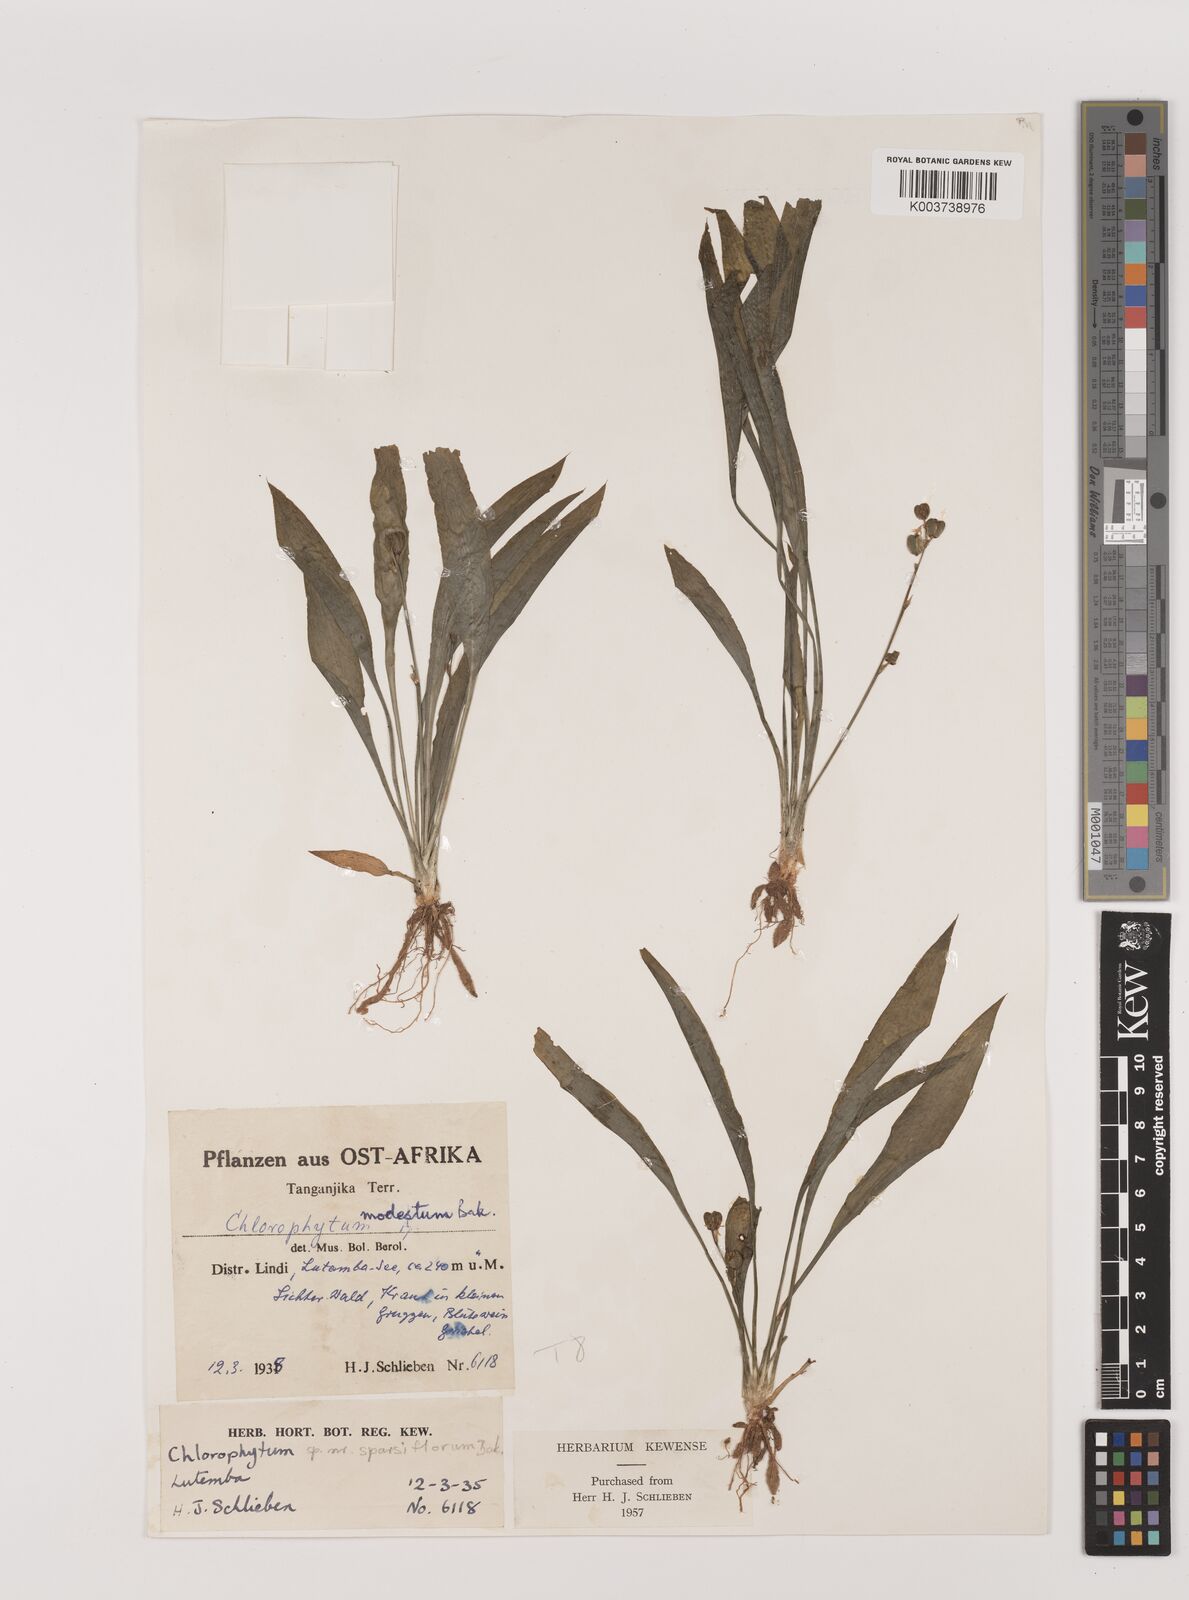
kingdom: Plantae
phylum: Tracheophyta
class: Liliopsida
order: Asparagales
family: Asparagaceae
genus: Chlorophytum
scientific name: Chlorophytum comosum
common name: Spider plant
